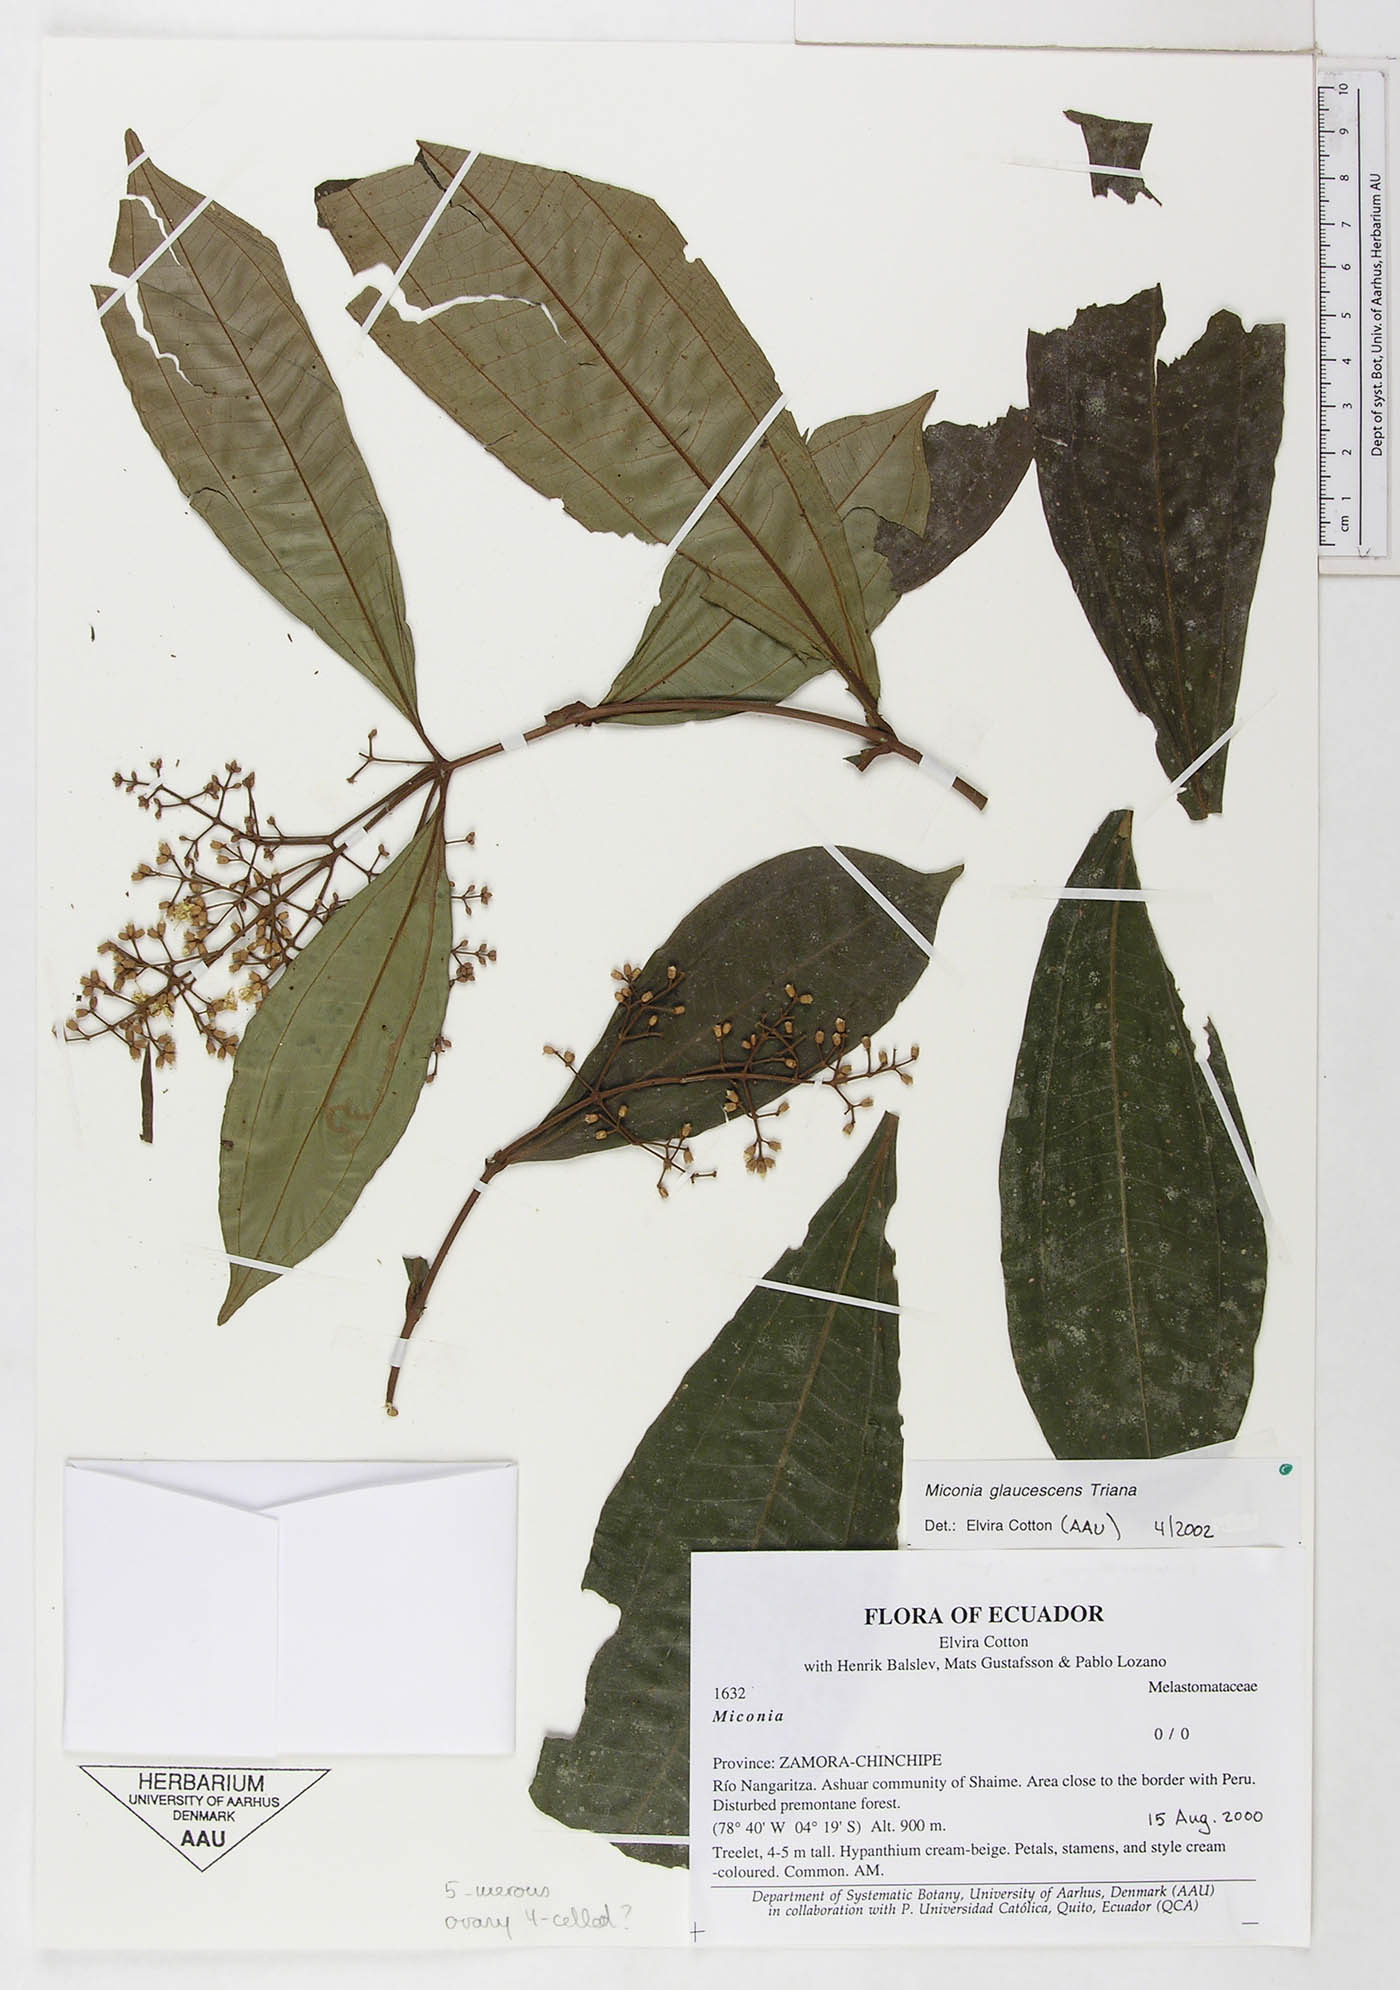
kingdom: Plantae
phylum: Tracheophyta
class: Magnoliopsida
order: Myrtales
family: Melastomataceae
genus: Miconia
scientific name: Miconia glaucescens
